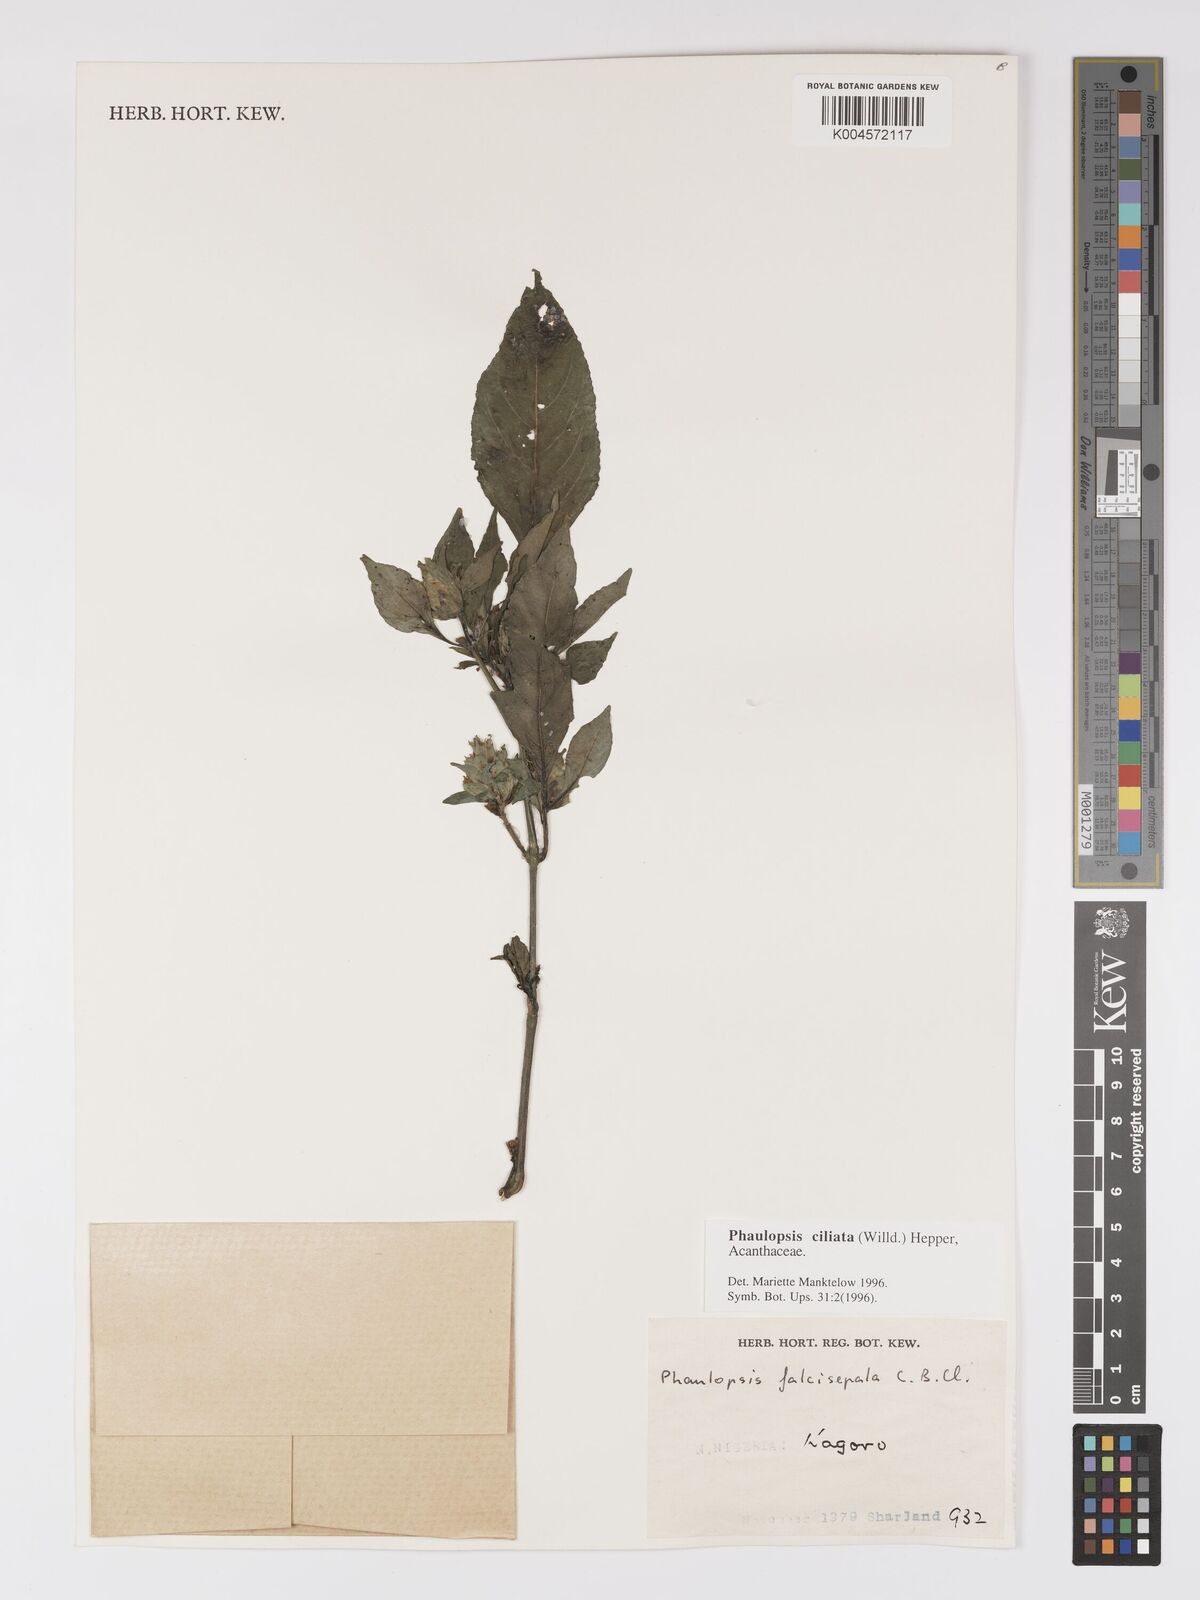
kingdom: Plantae
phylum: Tracheophyta
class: Magnoliopsida
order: Lamiales
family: Acanthaceae
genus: Phaulopsis
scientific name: Phaulopsis ciliata
